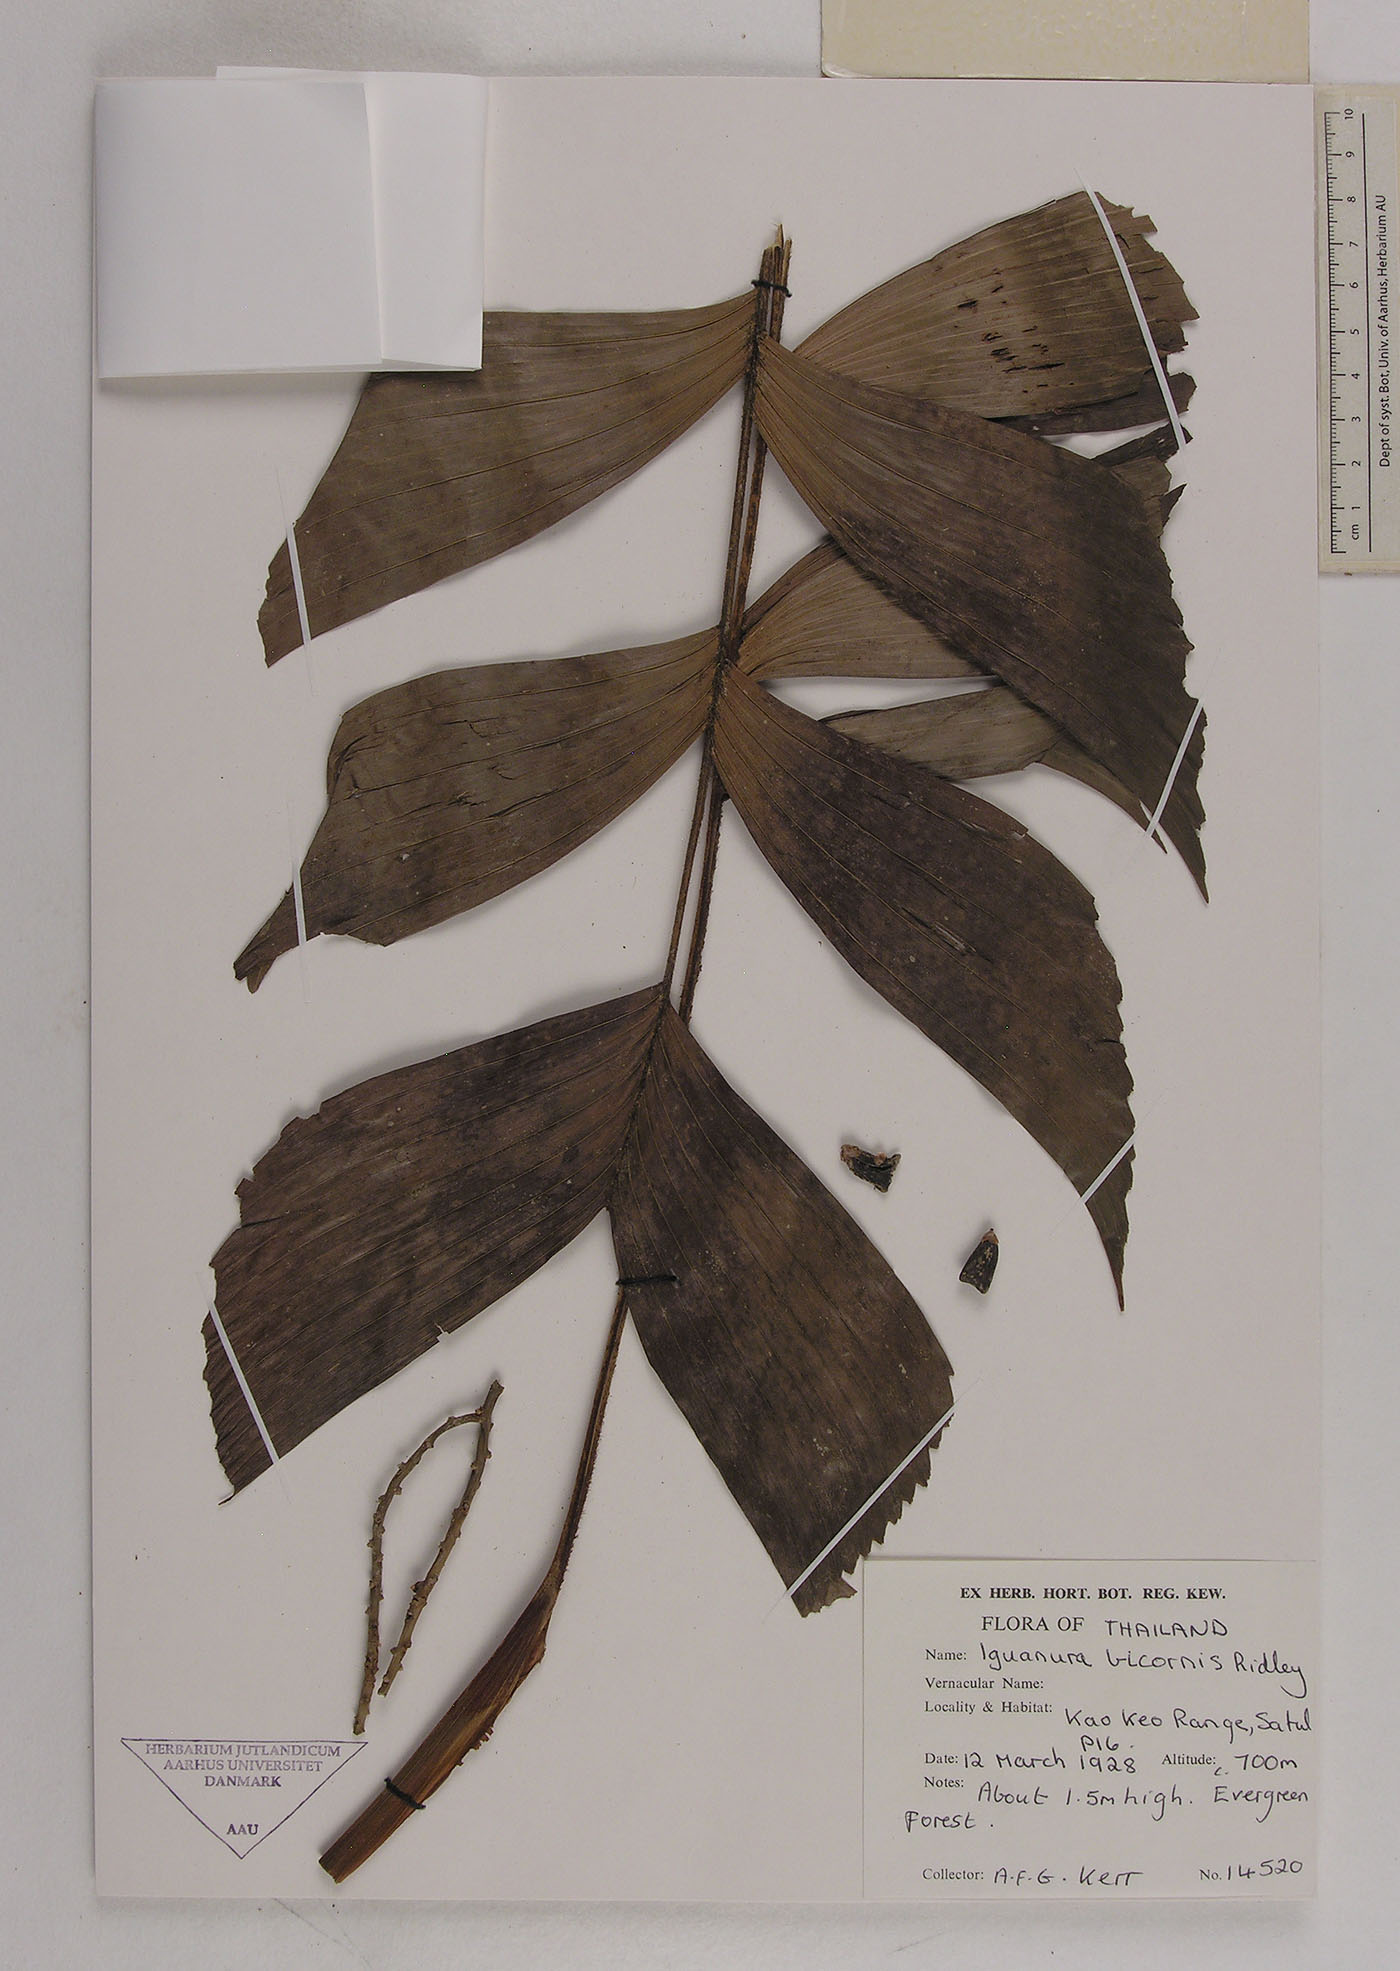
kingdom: Plantae
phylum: Tracheophyta
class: Liliopsida
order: Arecales
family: Arecaceae
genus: Iguanura
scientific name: Iguanura bicornis
